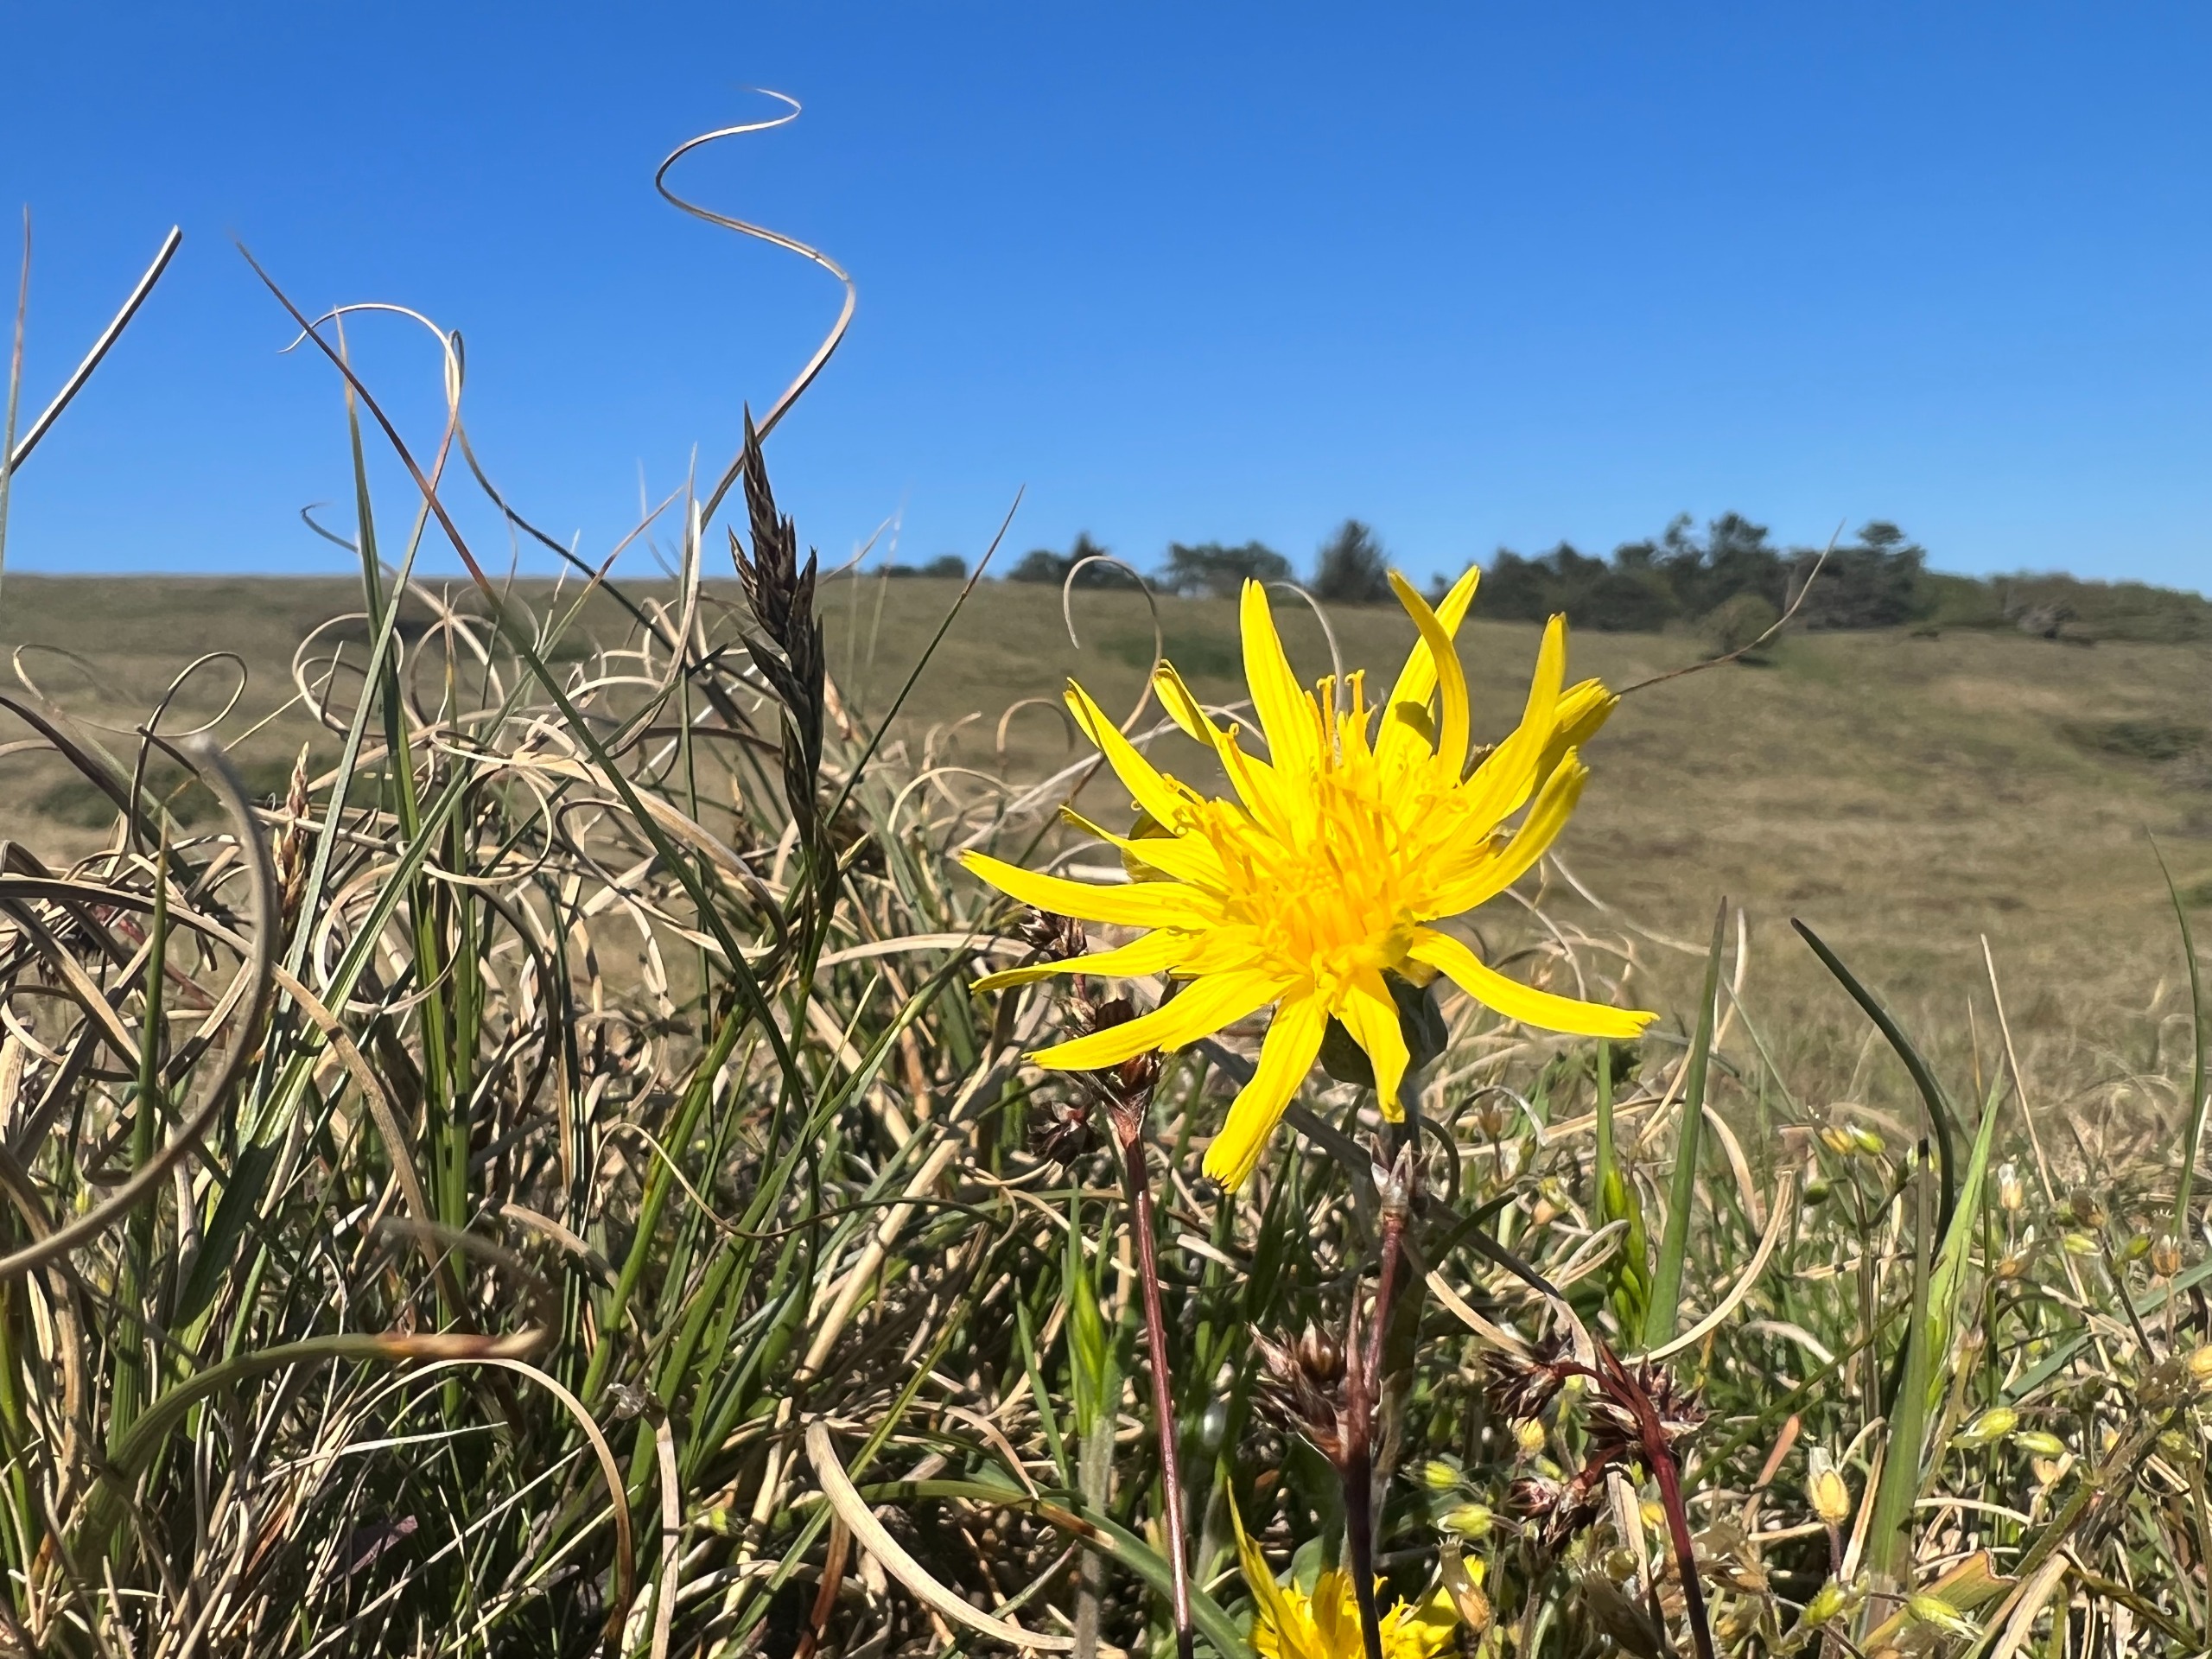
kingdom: Plantae
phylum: Tracheophyta
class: Magnoliopsida
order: Asterales
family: Asteraceae
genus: Scorzonera
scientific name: Scorzonera humilis
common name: Lav skorsoner
